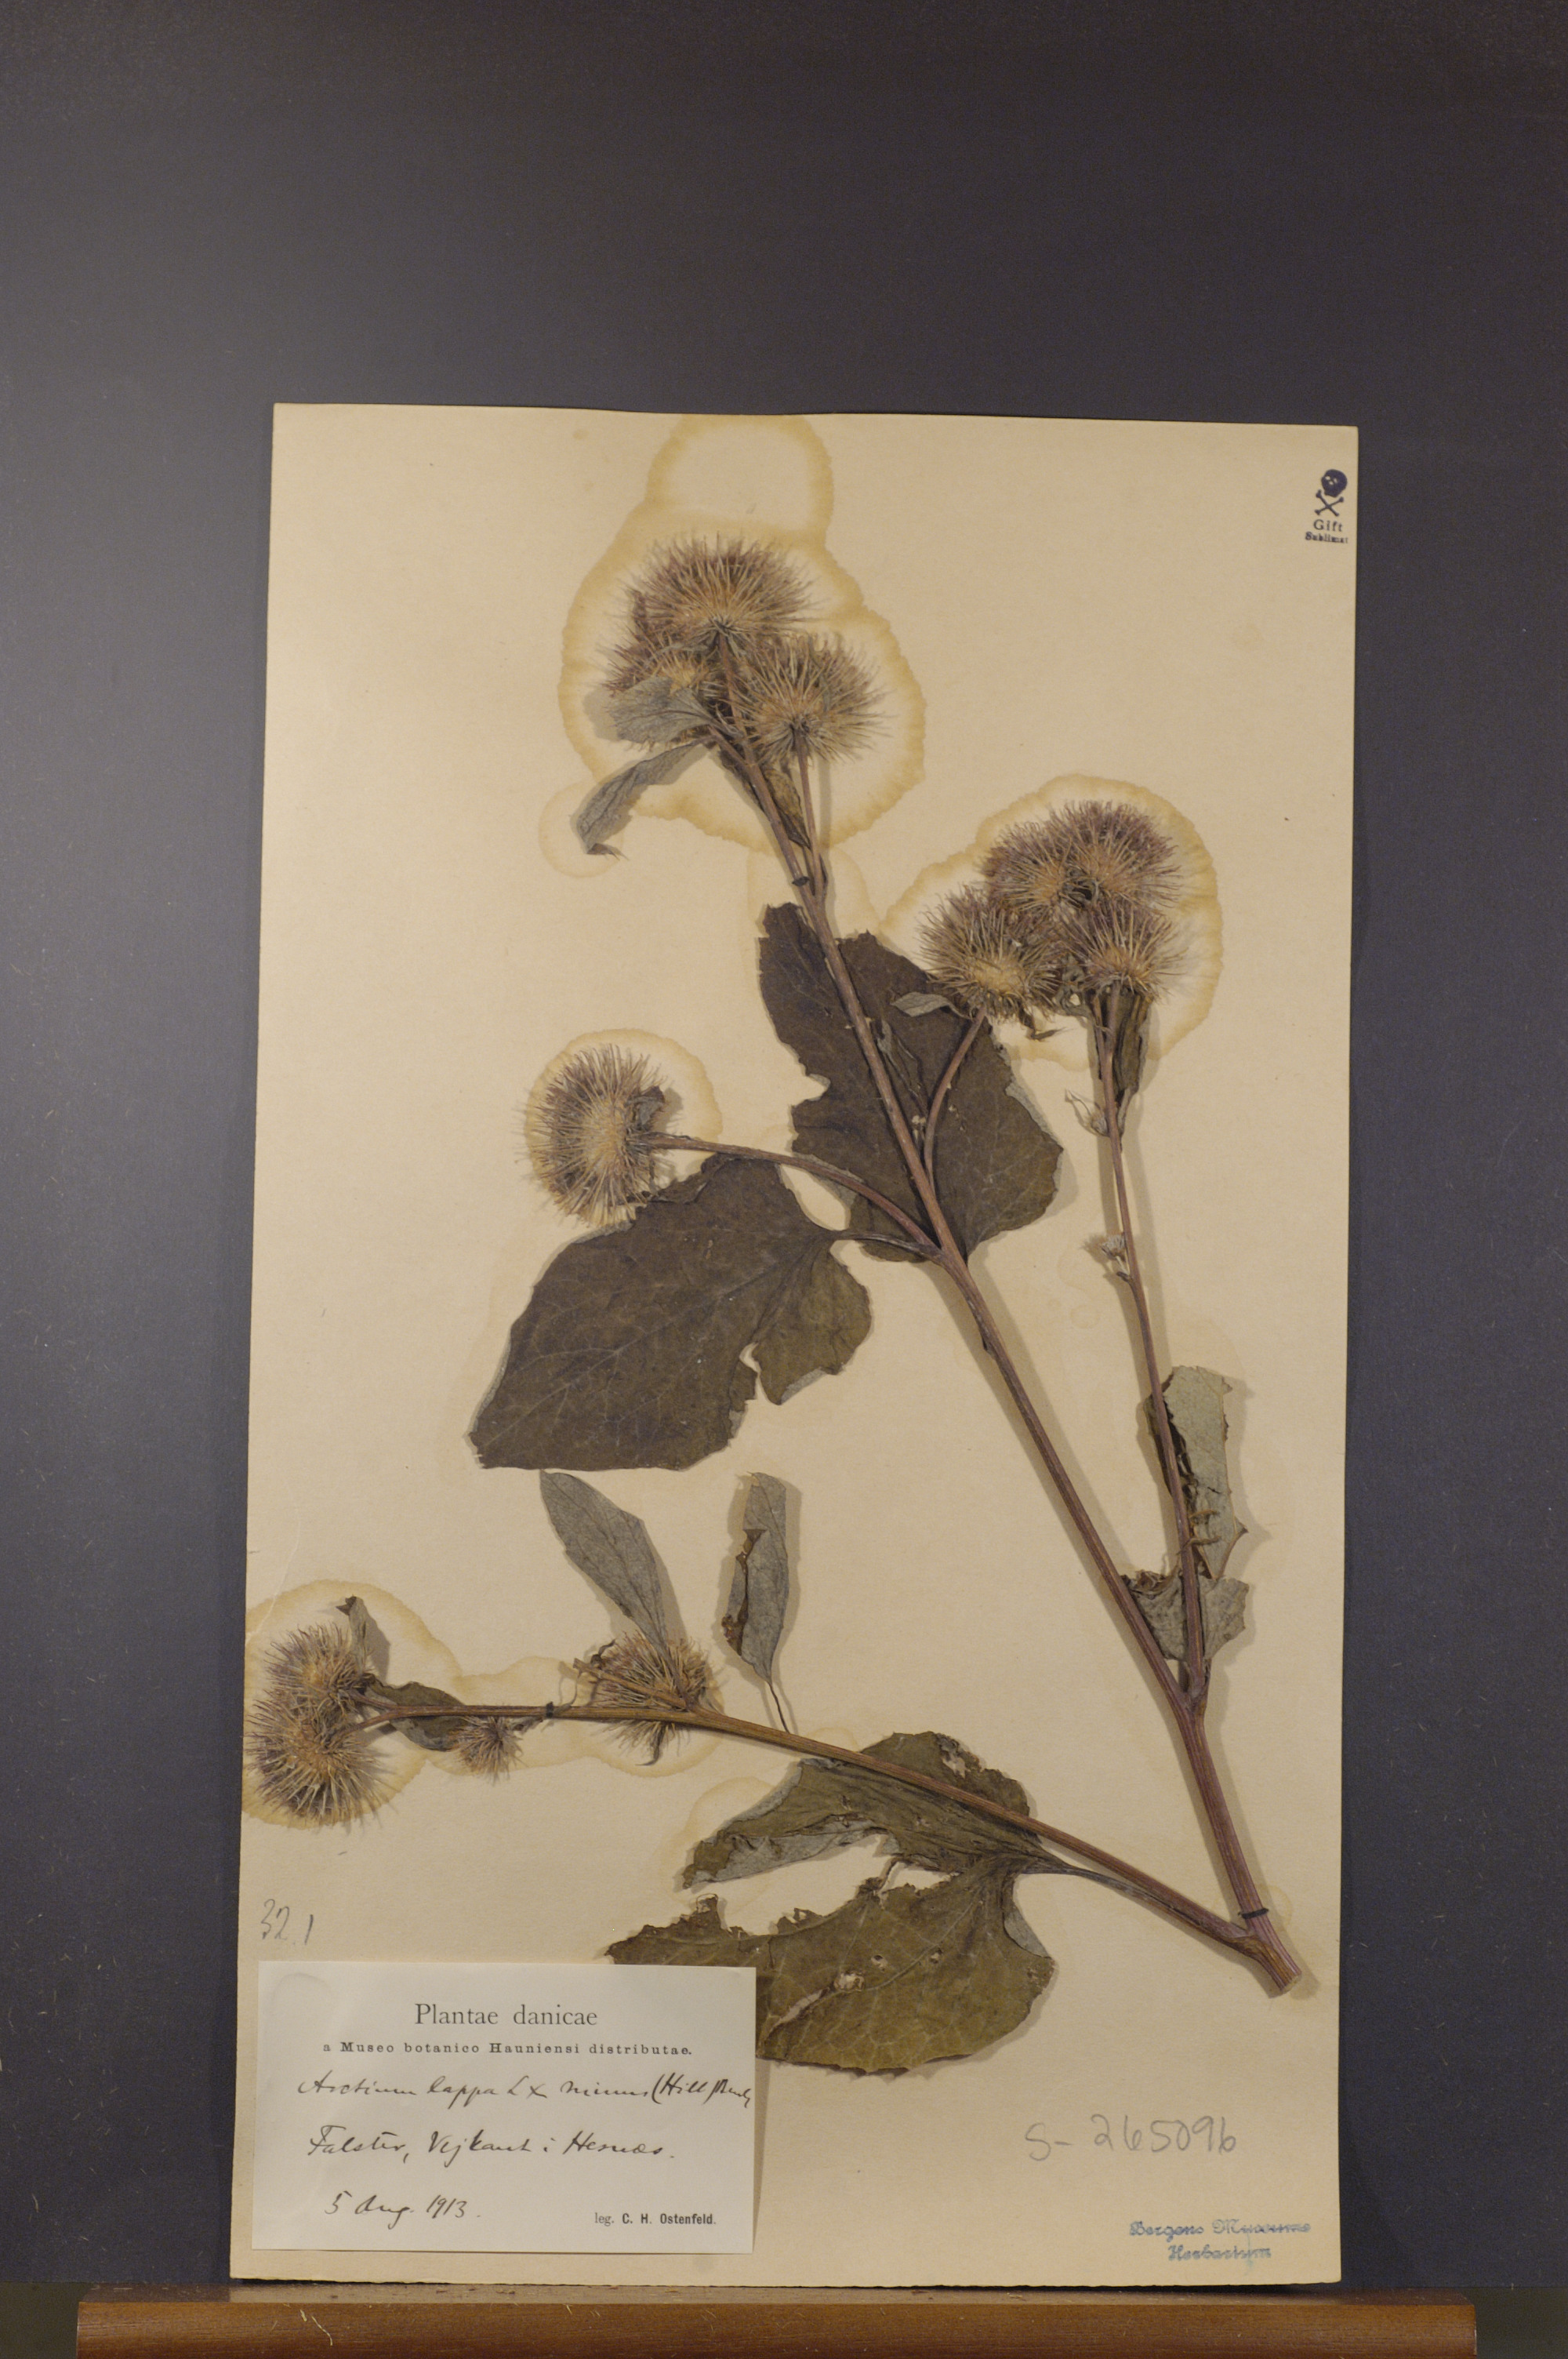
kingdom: Plantae
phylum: Tracheophyta
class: Magnoliopsida
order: Asterales
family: Asteraceae
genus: Arctium
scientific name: Arctium lappa
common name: Greater burdock
